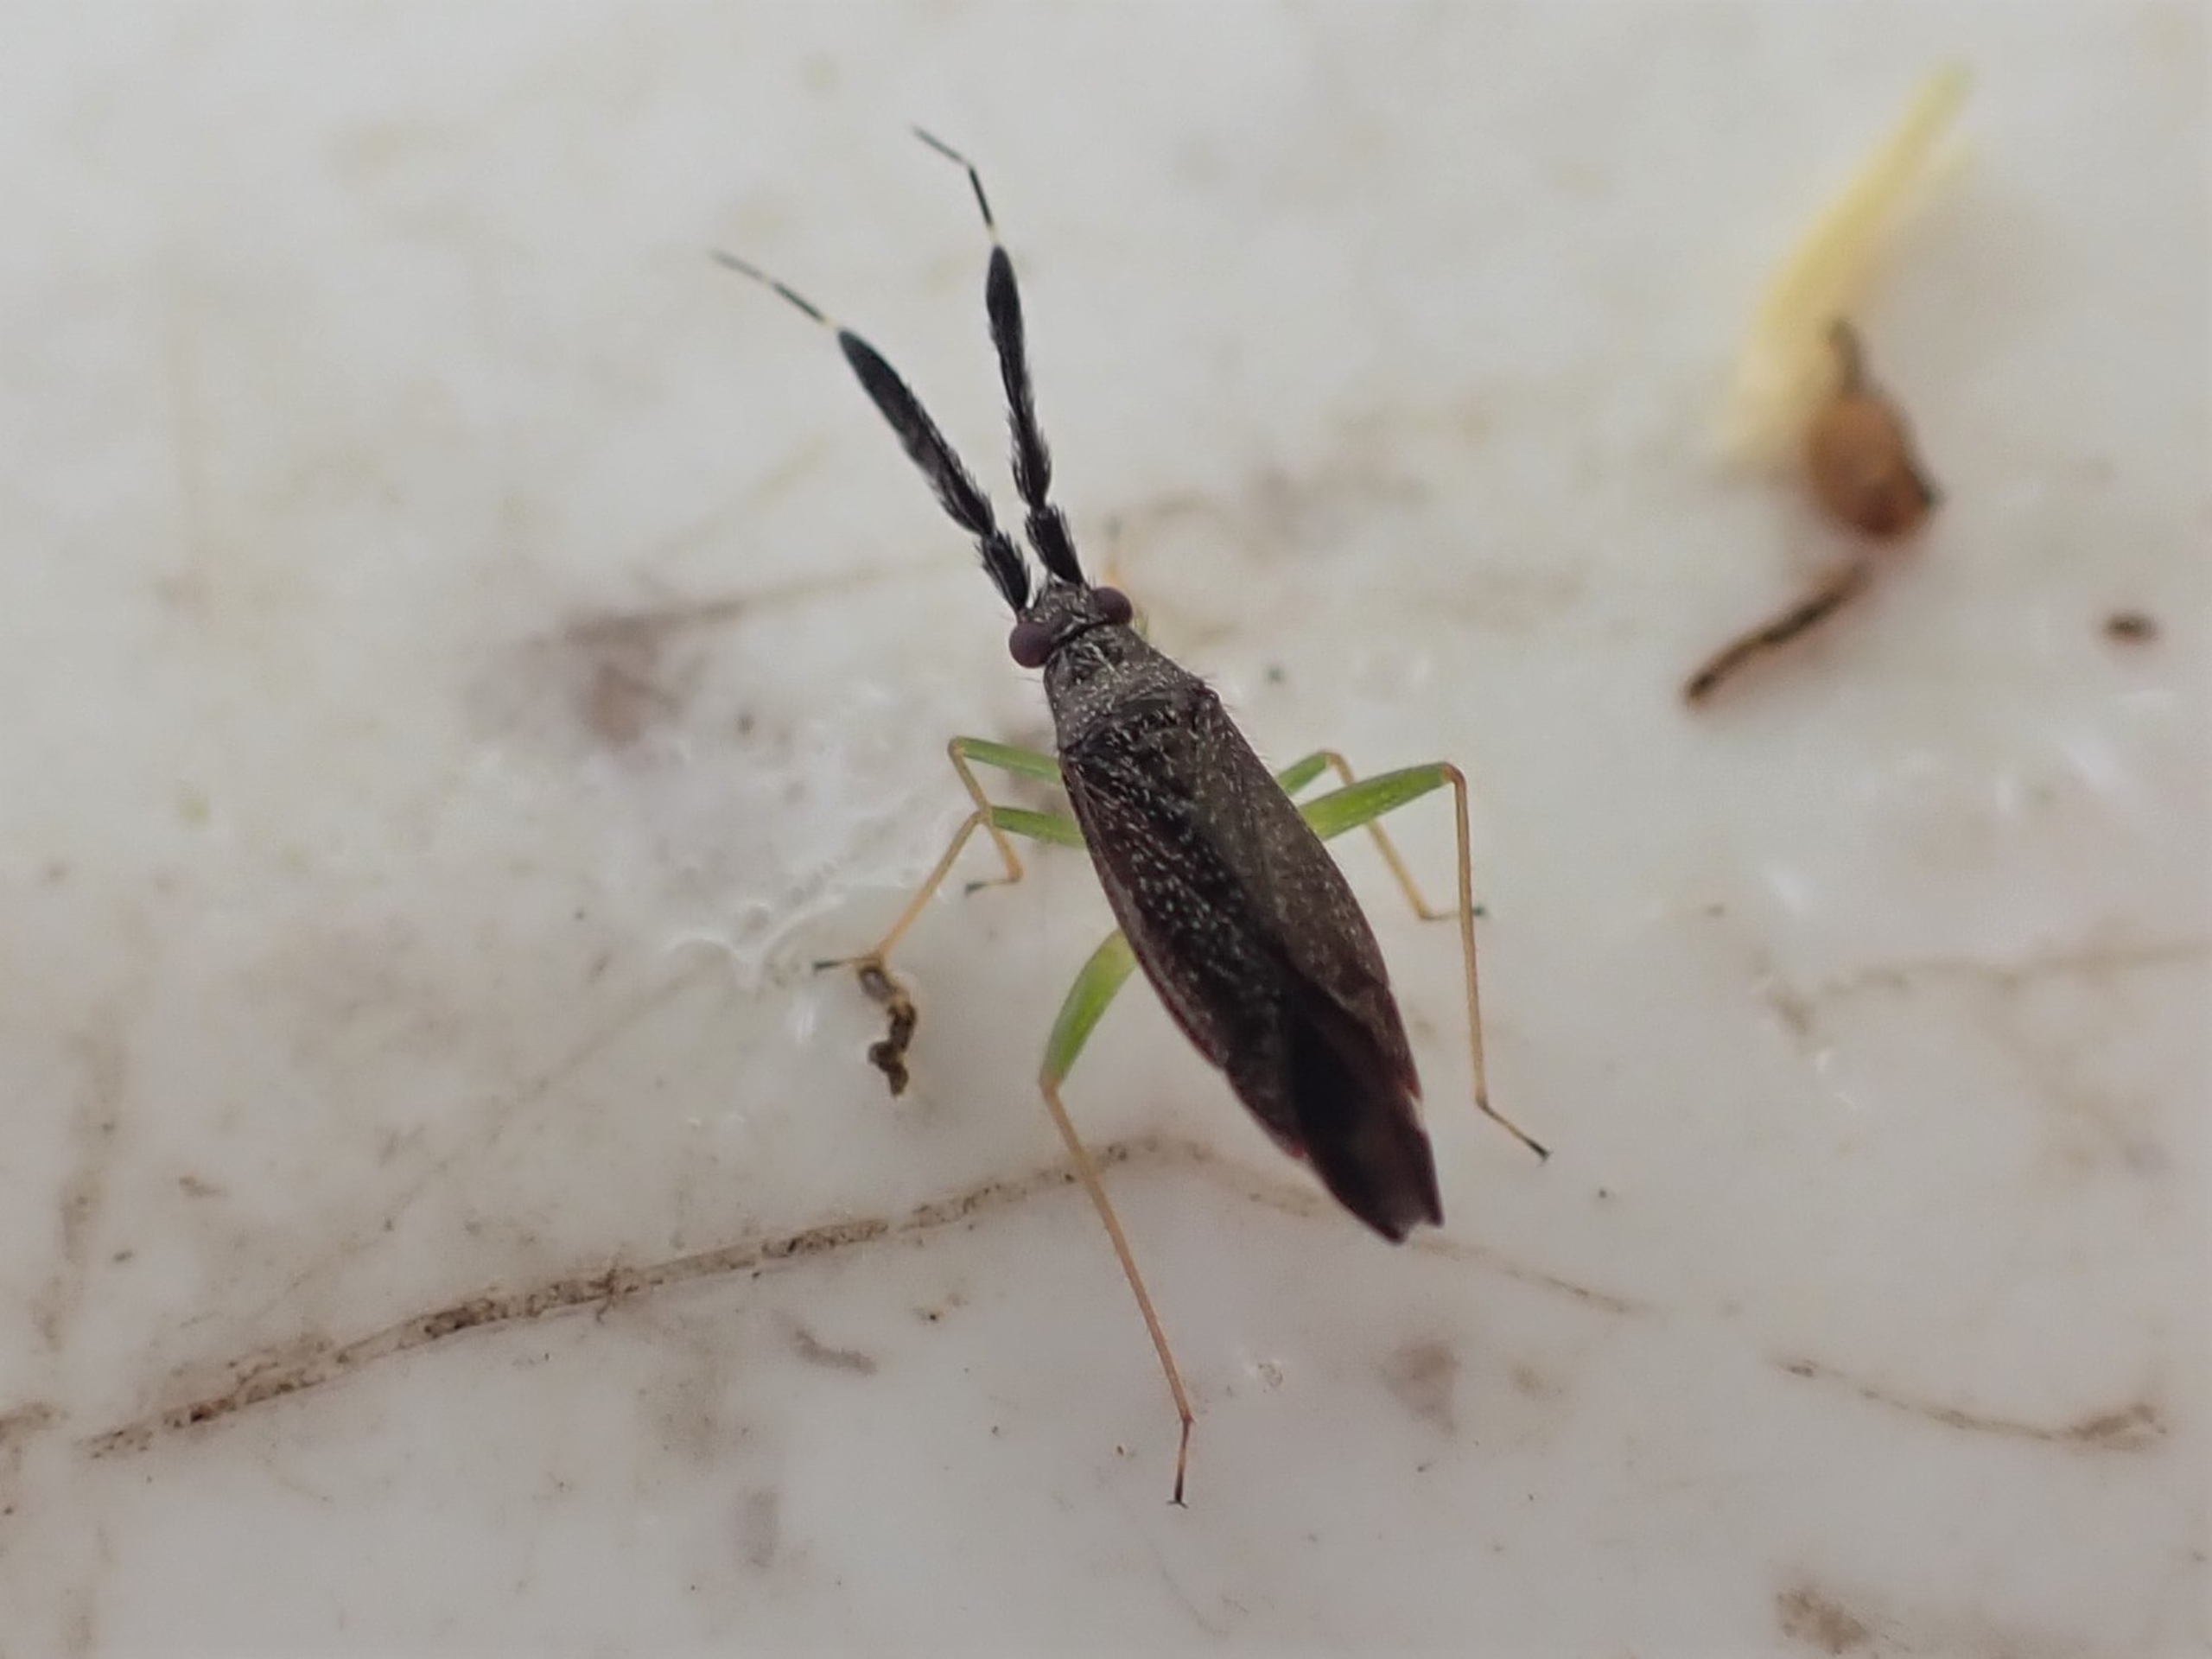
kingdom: Animalia
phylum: Arthropoda
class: Insecta
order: Hemiptera
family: Miridae
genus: Heterotoma
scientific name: Heterotoma planicornis
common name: Køllehornet blomstertæge
